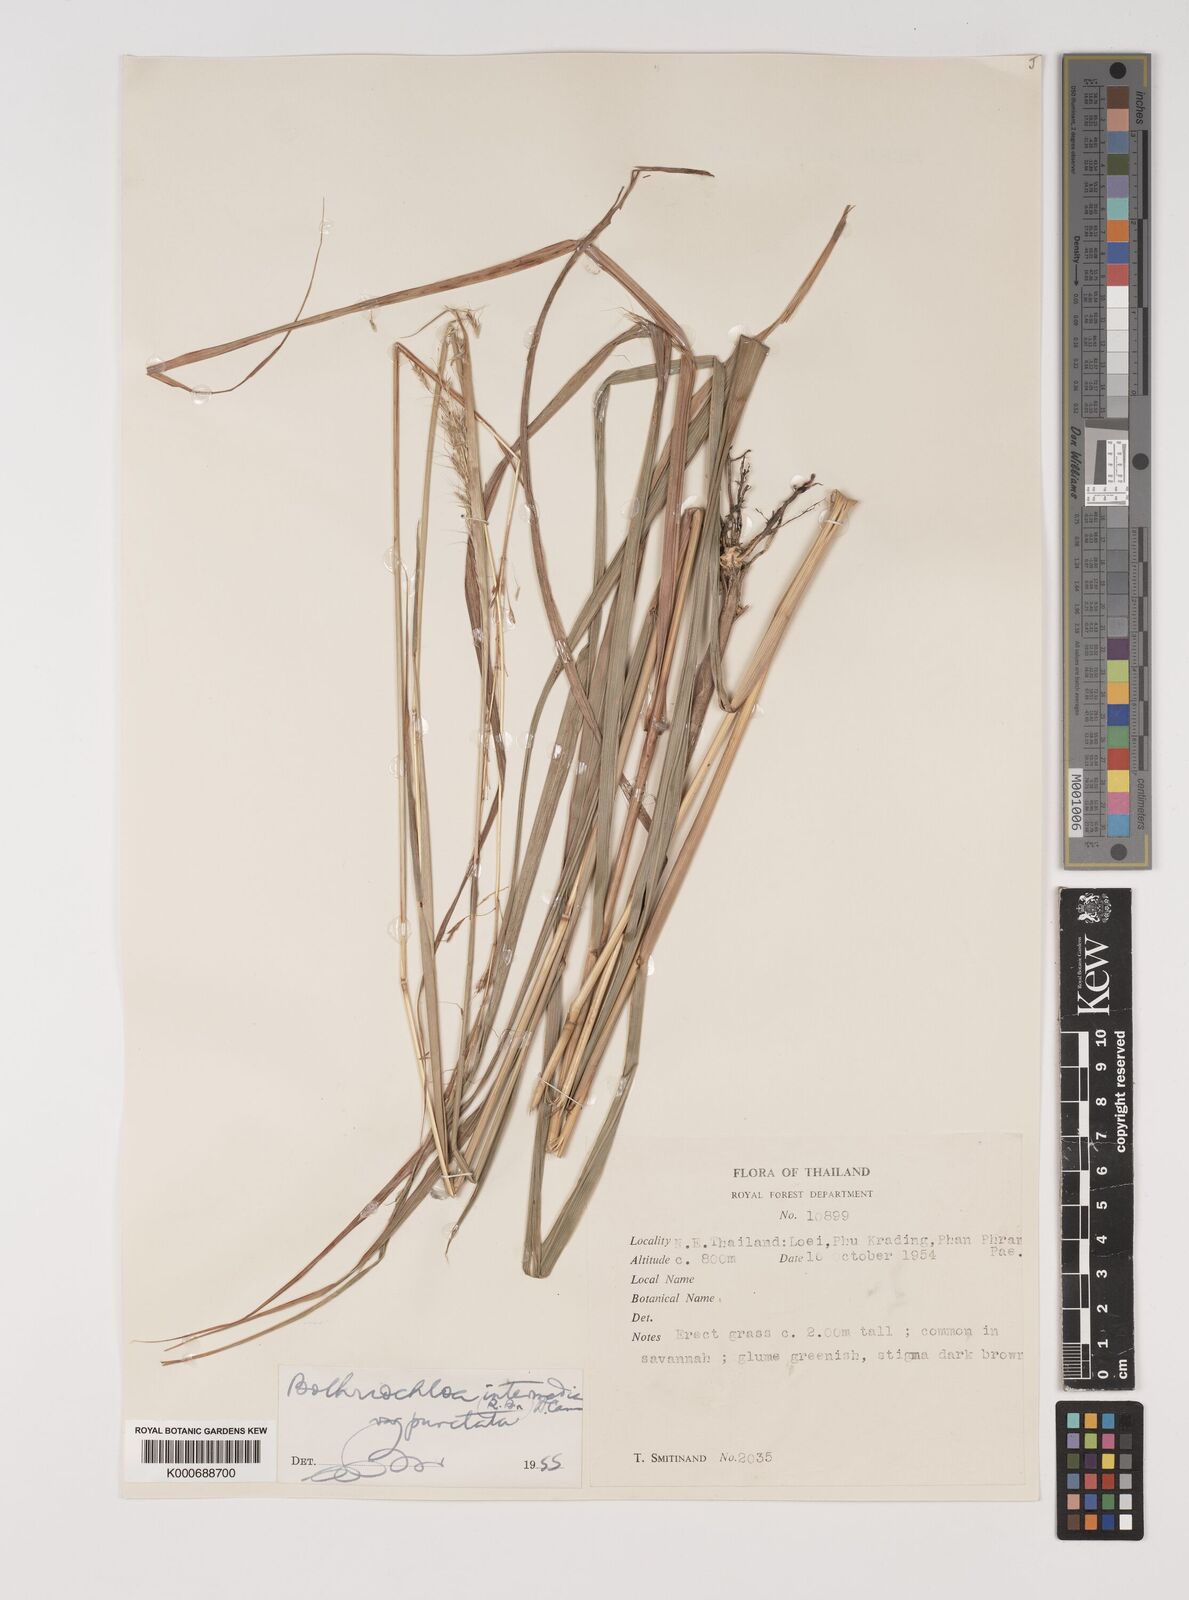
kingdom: Plantae
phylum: Tracheophyta
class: Liliopsida
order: Poales
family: Poaceae
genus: Bothriochloa
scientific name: Bothriochloa bladhii
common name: Caucasian bluestem
